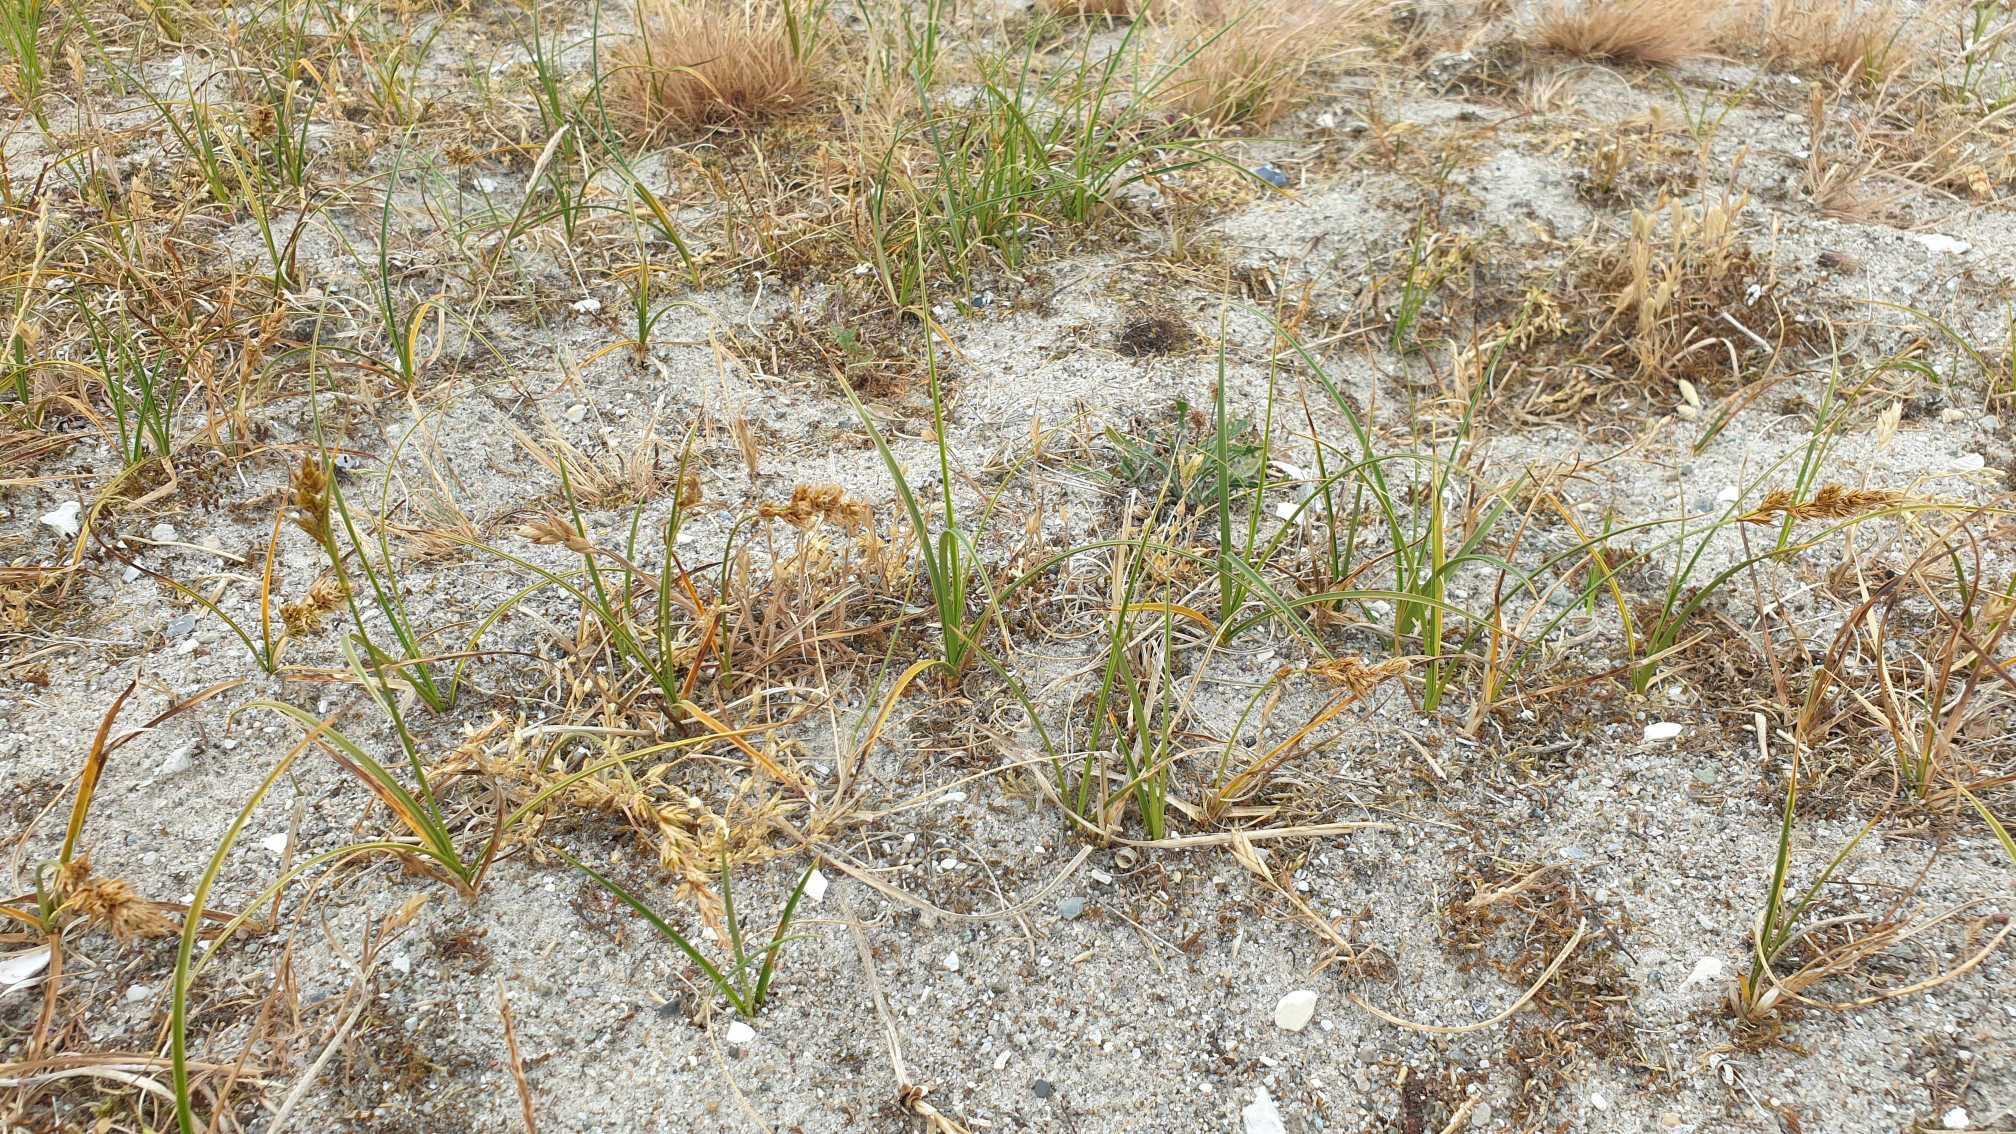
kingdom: Plantae
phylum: Tracheophyta
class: Liliopsida
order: Poales
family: Cyperaceae
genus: Carex
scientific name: Carex arenaria
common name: Sand-star
